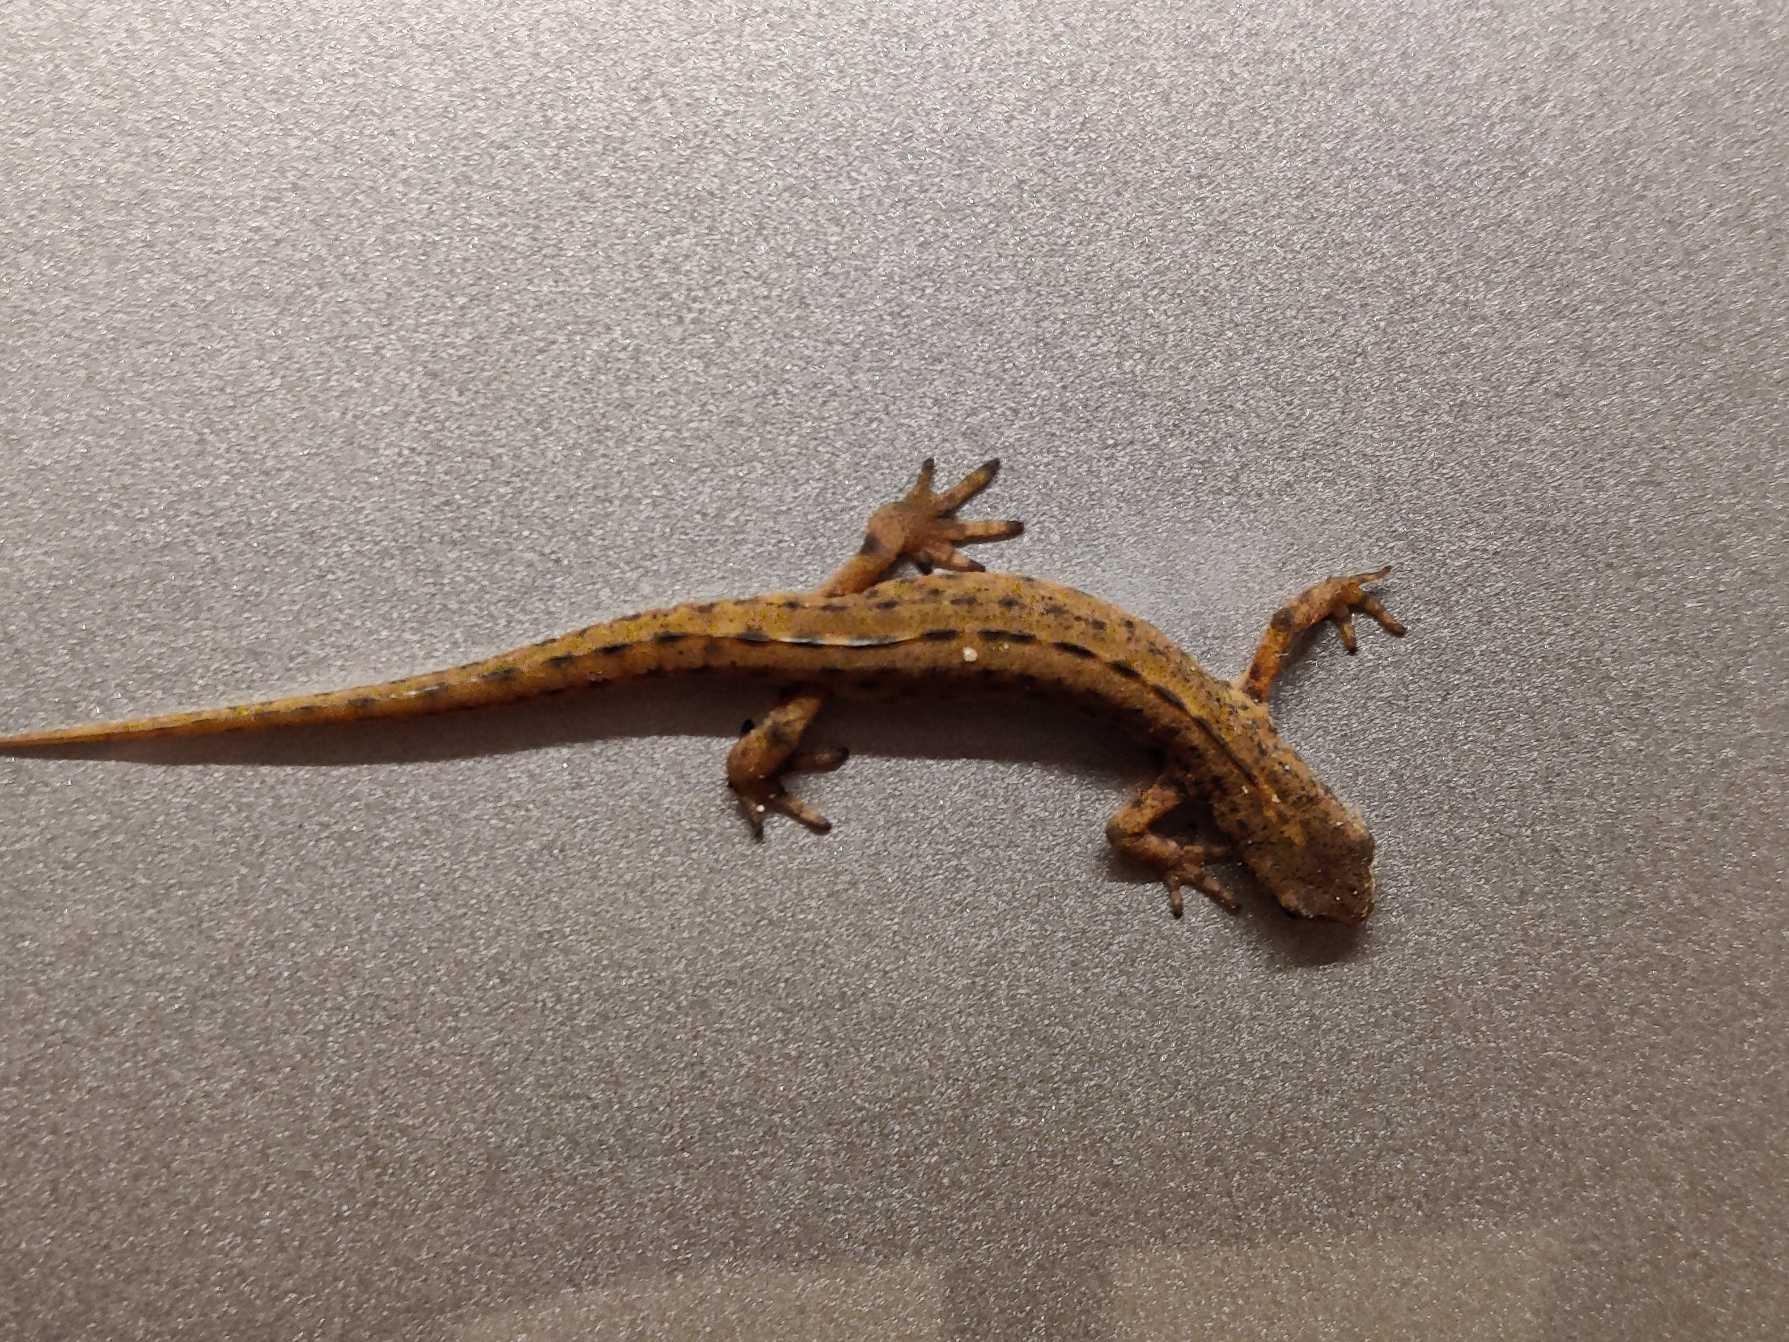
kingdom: Animalia
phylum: Chordata
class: Amphibia
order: Caudata
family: Salamandridae
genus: Lissotriton
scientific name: Lissotriton vulgaris
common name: Lille vandsalamander
